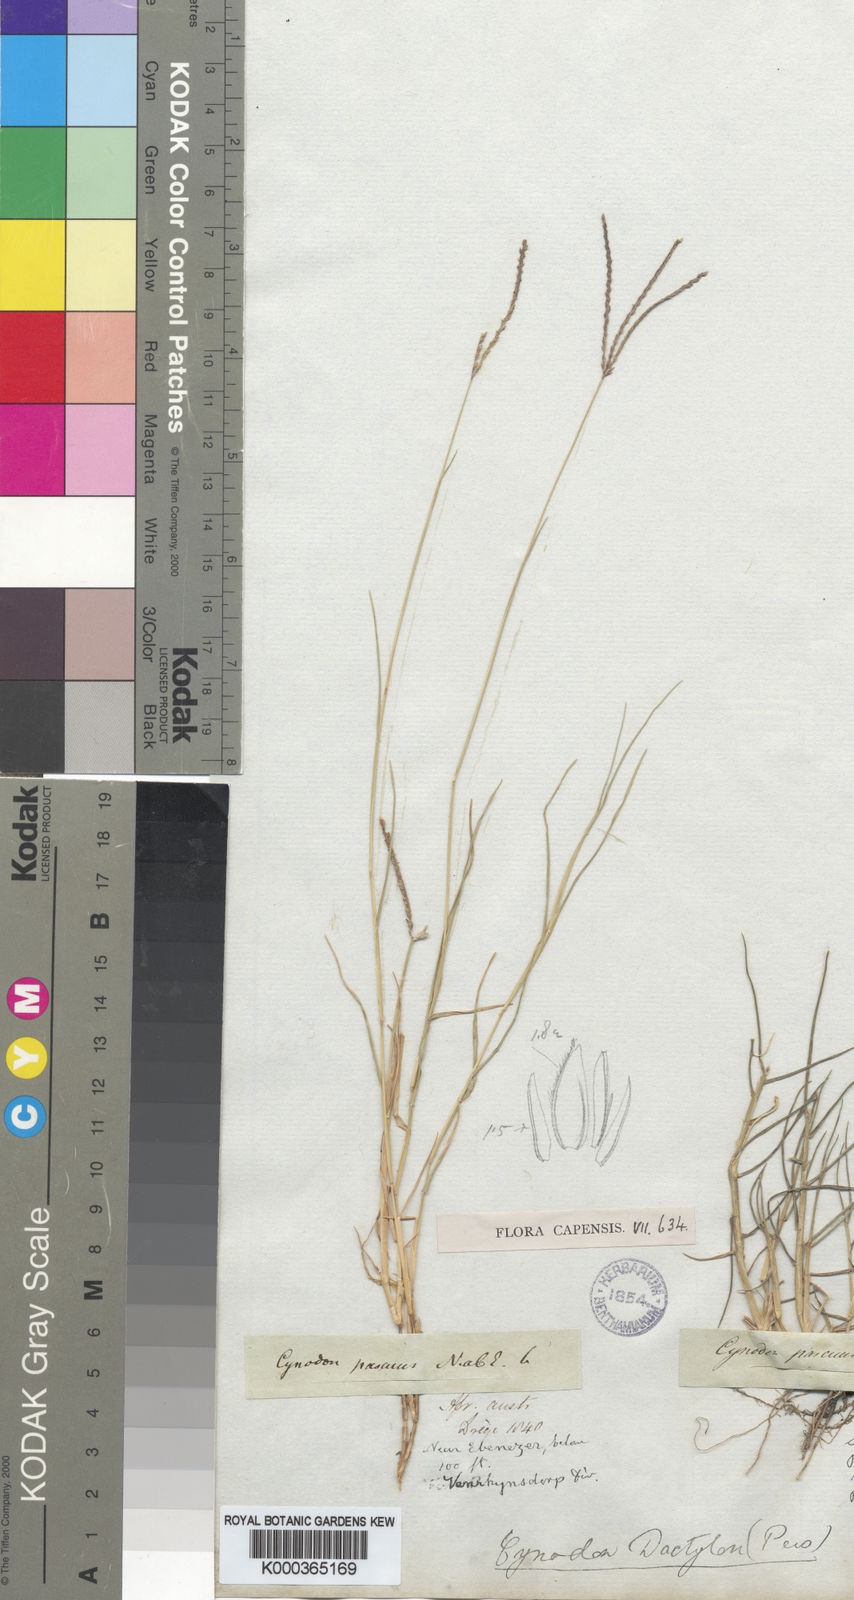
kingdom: Plantae
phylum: Tracheophyta
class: Liliopsida
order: Poales
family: Poaceae
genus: Cynodon
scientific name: Cynodon dactylon
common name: Bermuda grass
